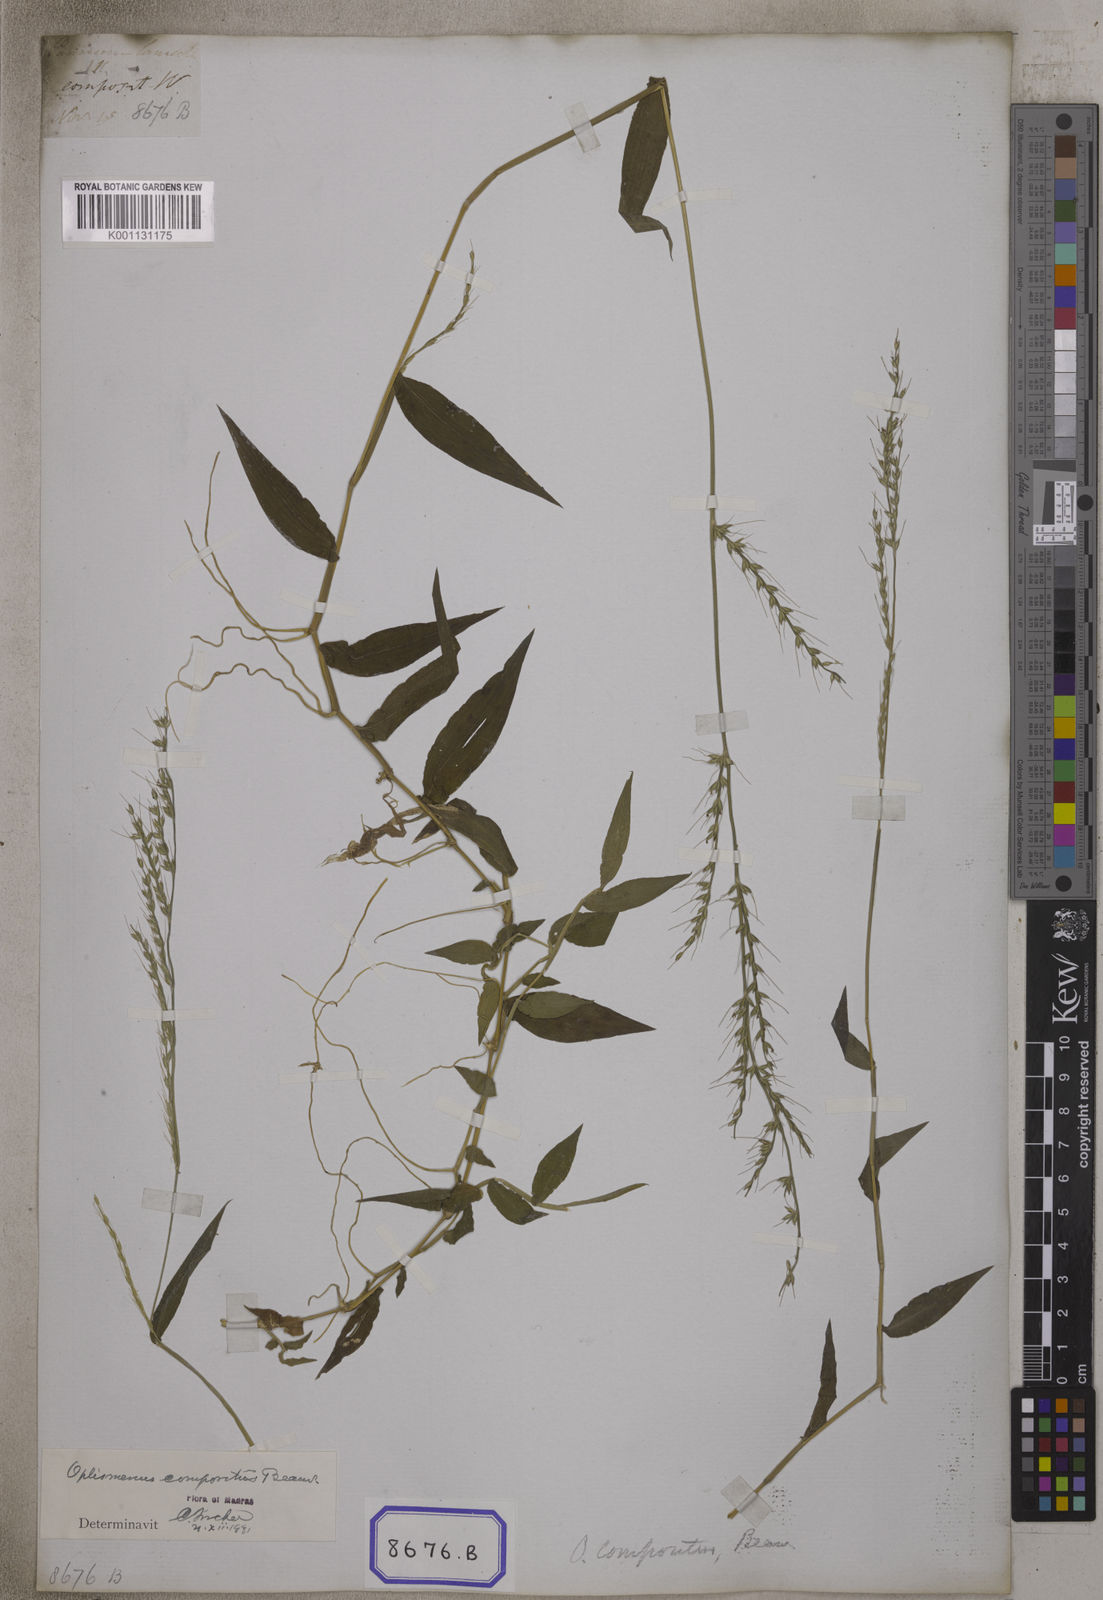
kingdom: Plantae
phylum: Tracheophyta
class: Liliopsida
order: Poales
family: Poaceae
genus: Oplismenus
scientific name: Oplismenus compositus
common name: Running mountain grass
